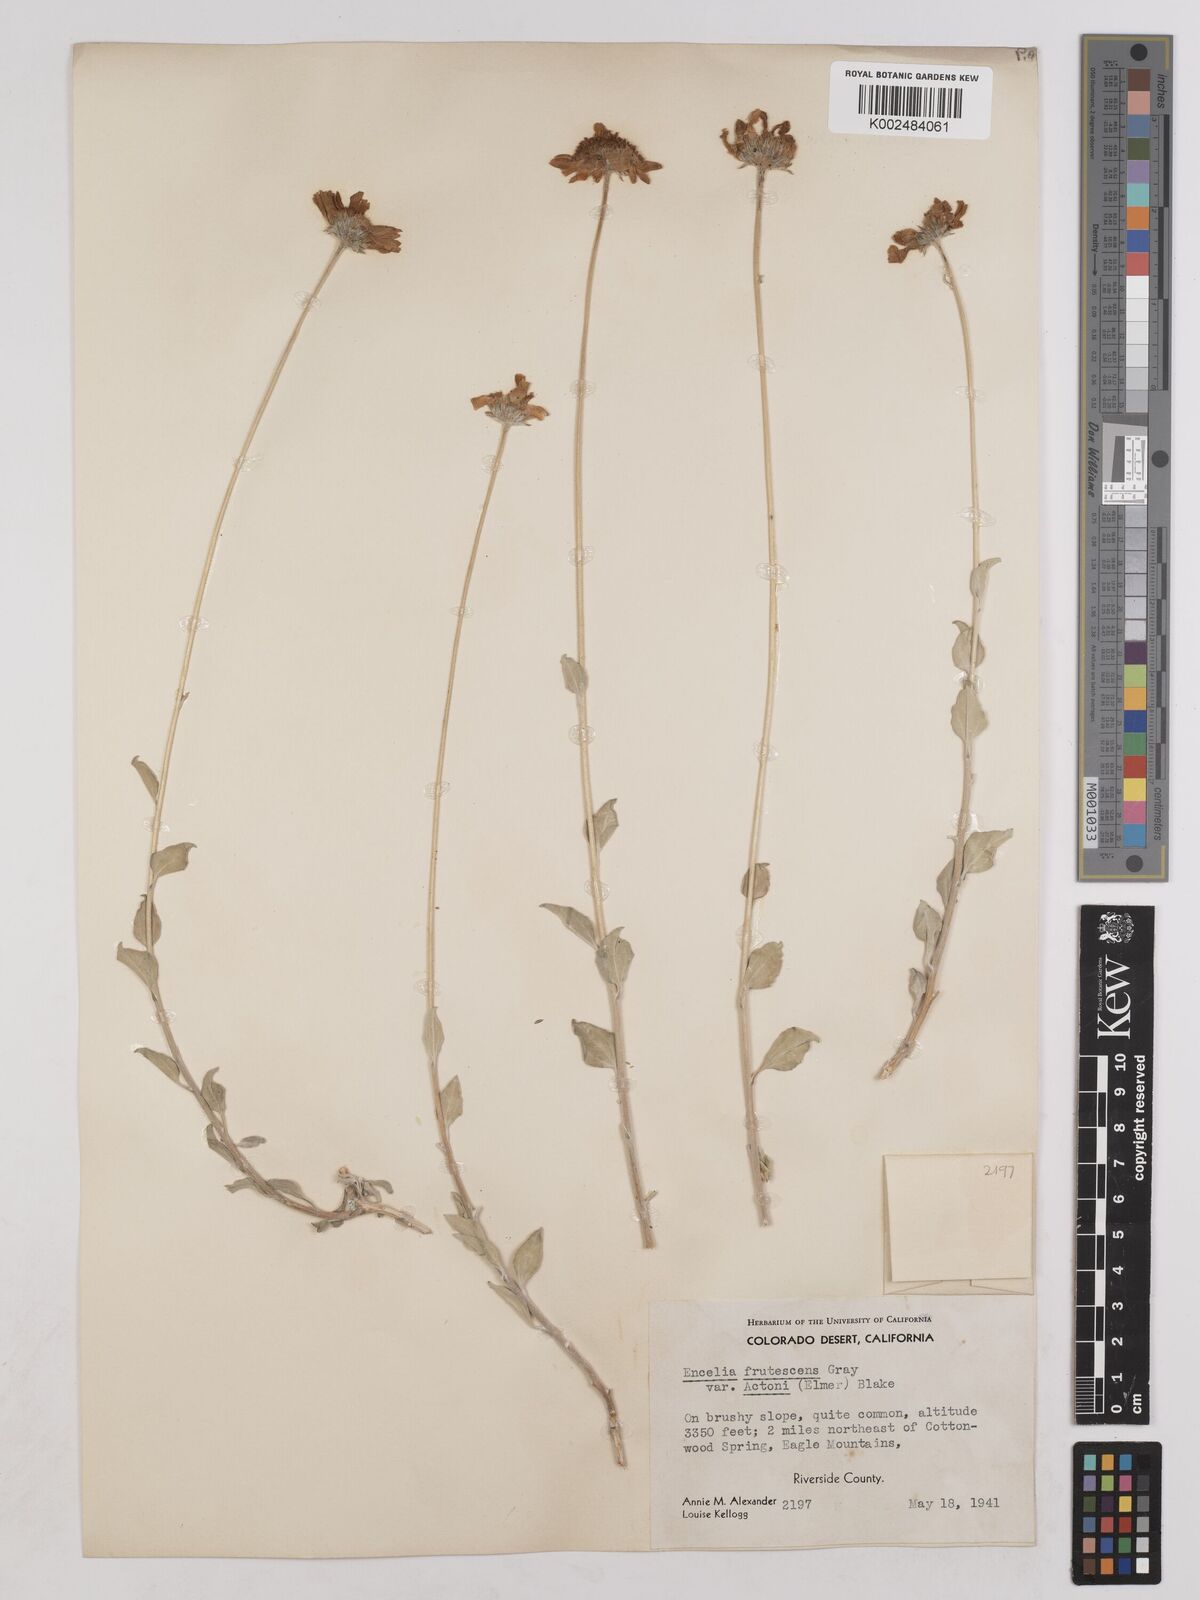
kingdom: Plantae
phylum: Tracheophyta
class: Magnoliopsida
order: Asterales
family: Asteraceae
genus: Encelia
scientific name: Encelia actoni
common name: Acton encelia
